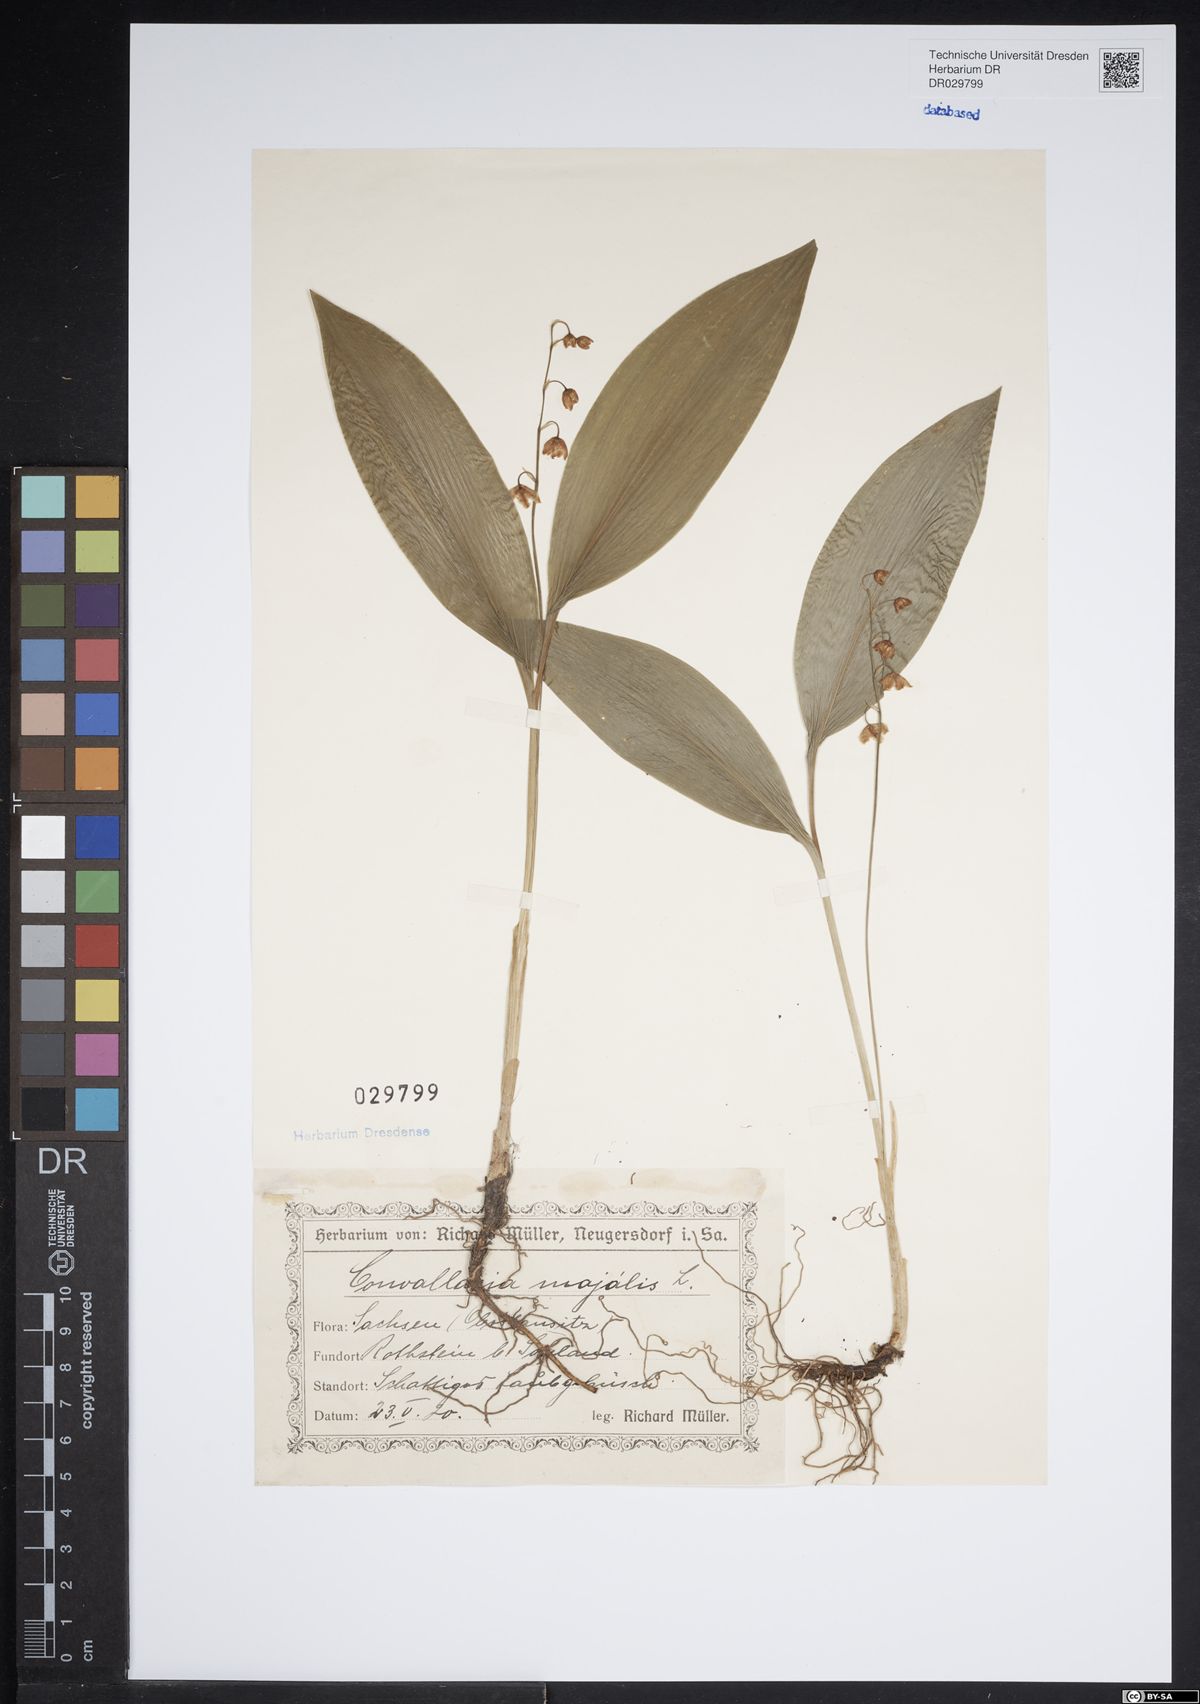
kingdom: Plantae
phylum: Tracheophyta
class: Liliopsida
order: Asparagales
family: Asparagaceae
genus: Convallaria
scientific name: Convallaria majalis
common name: Lily-of-the-valley
